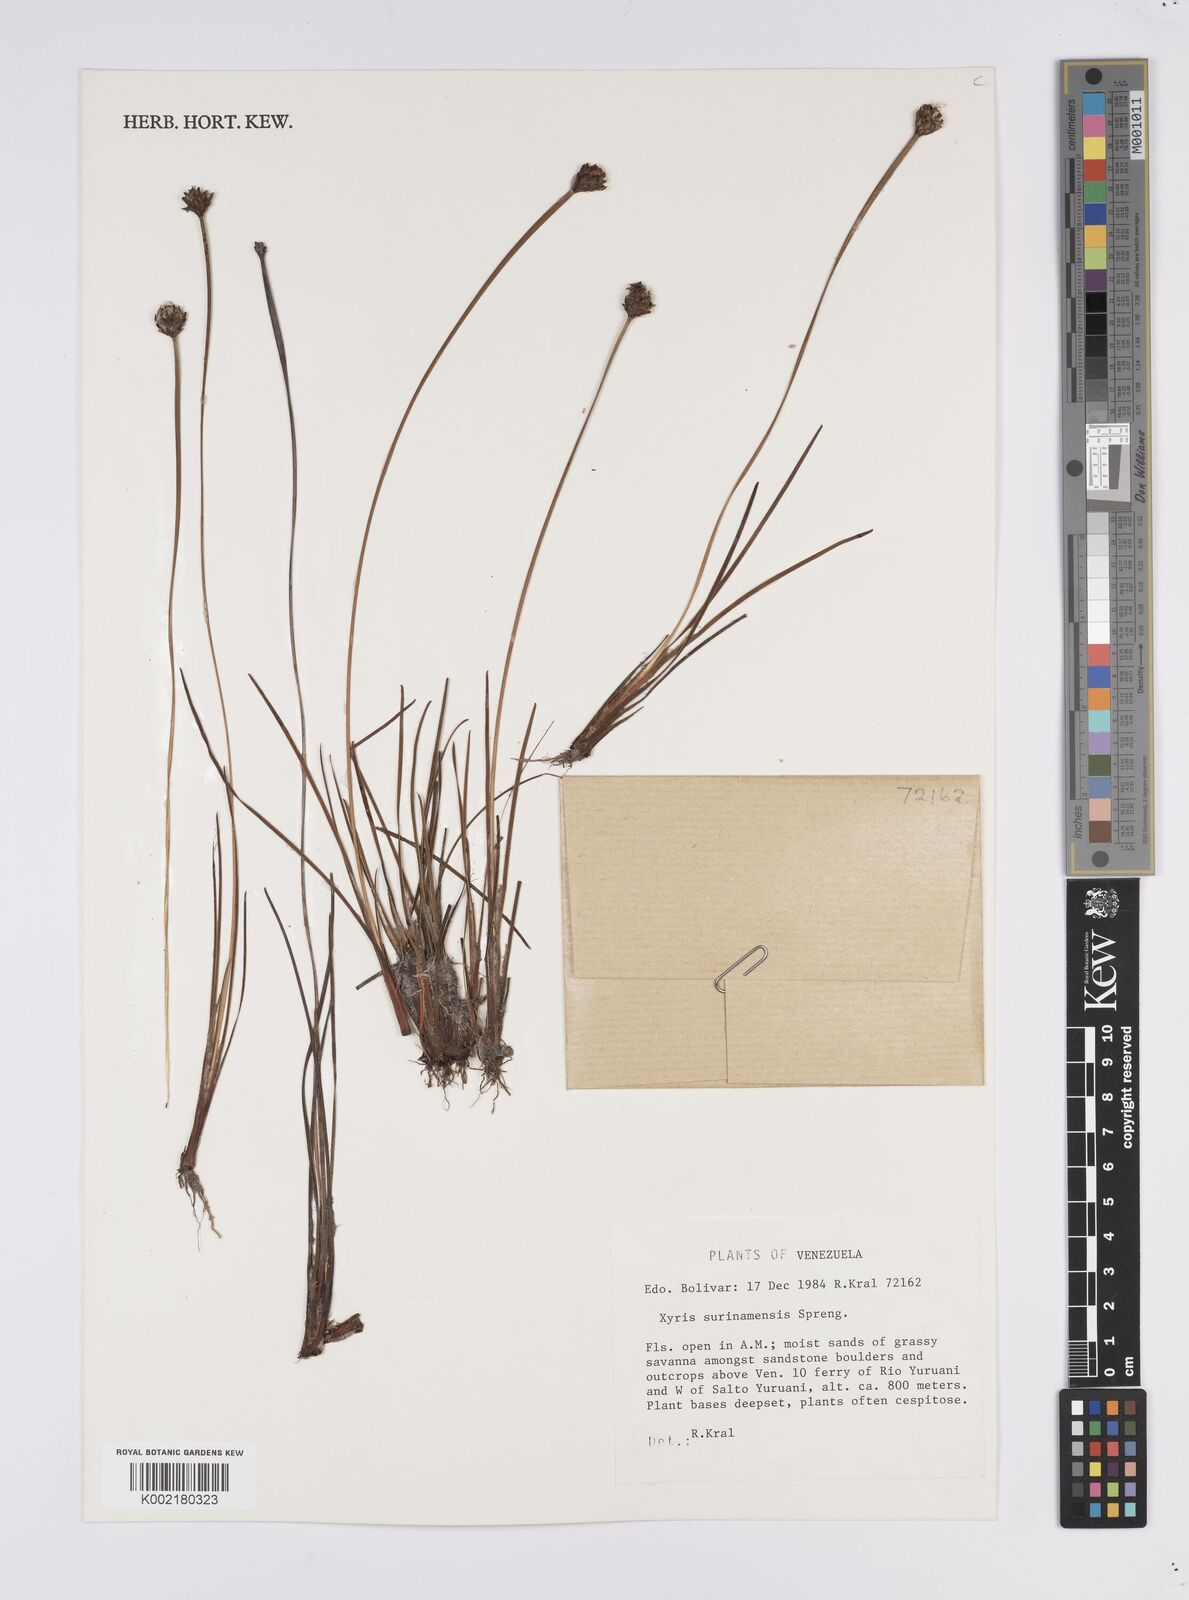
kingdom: Plantae
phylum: Tracheophyta
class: Liliopsida
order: Poales
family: Xyridaceae
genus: Xyris
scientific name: Xyris surinamensis
